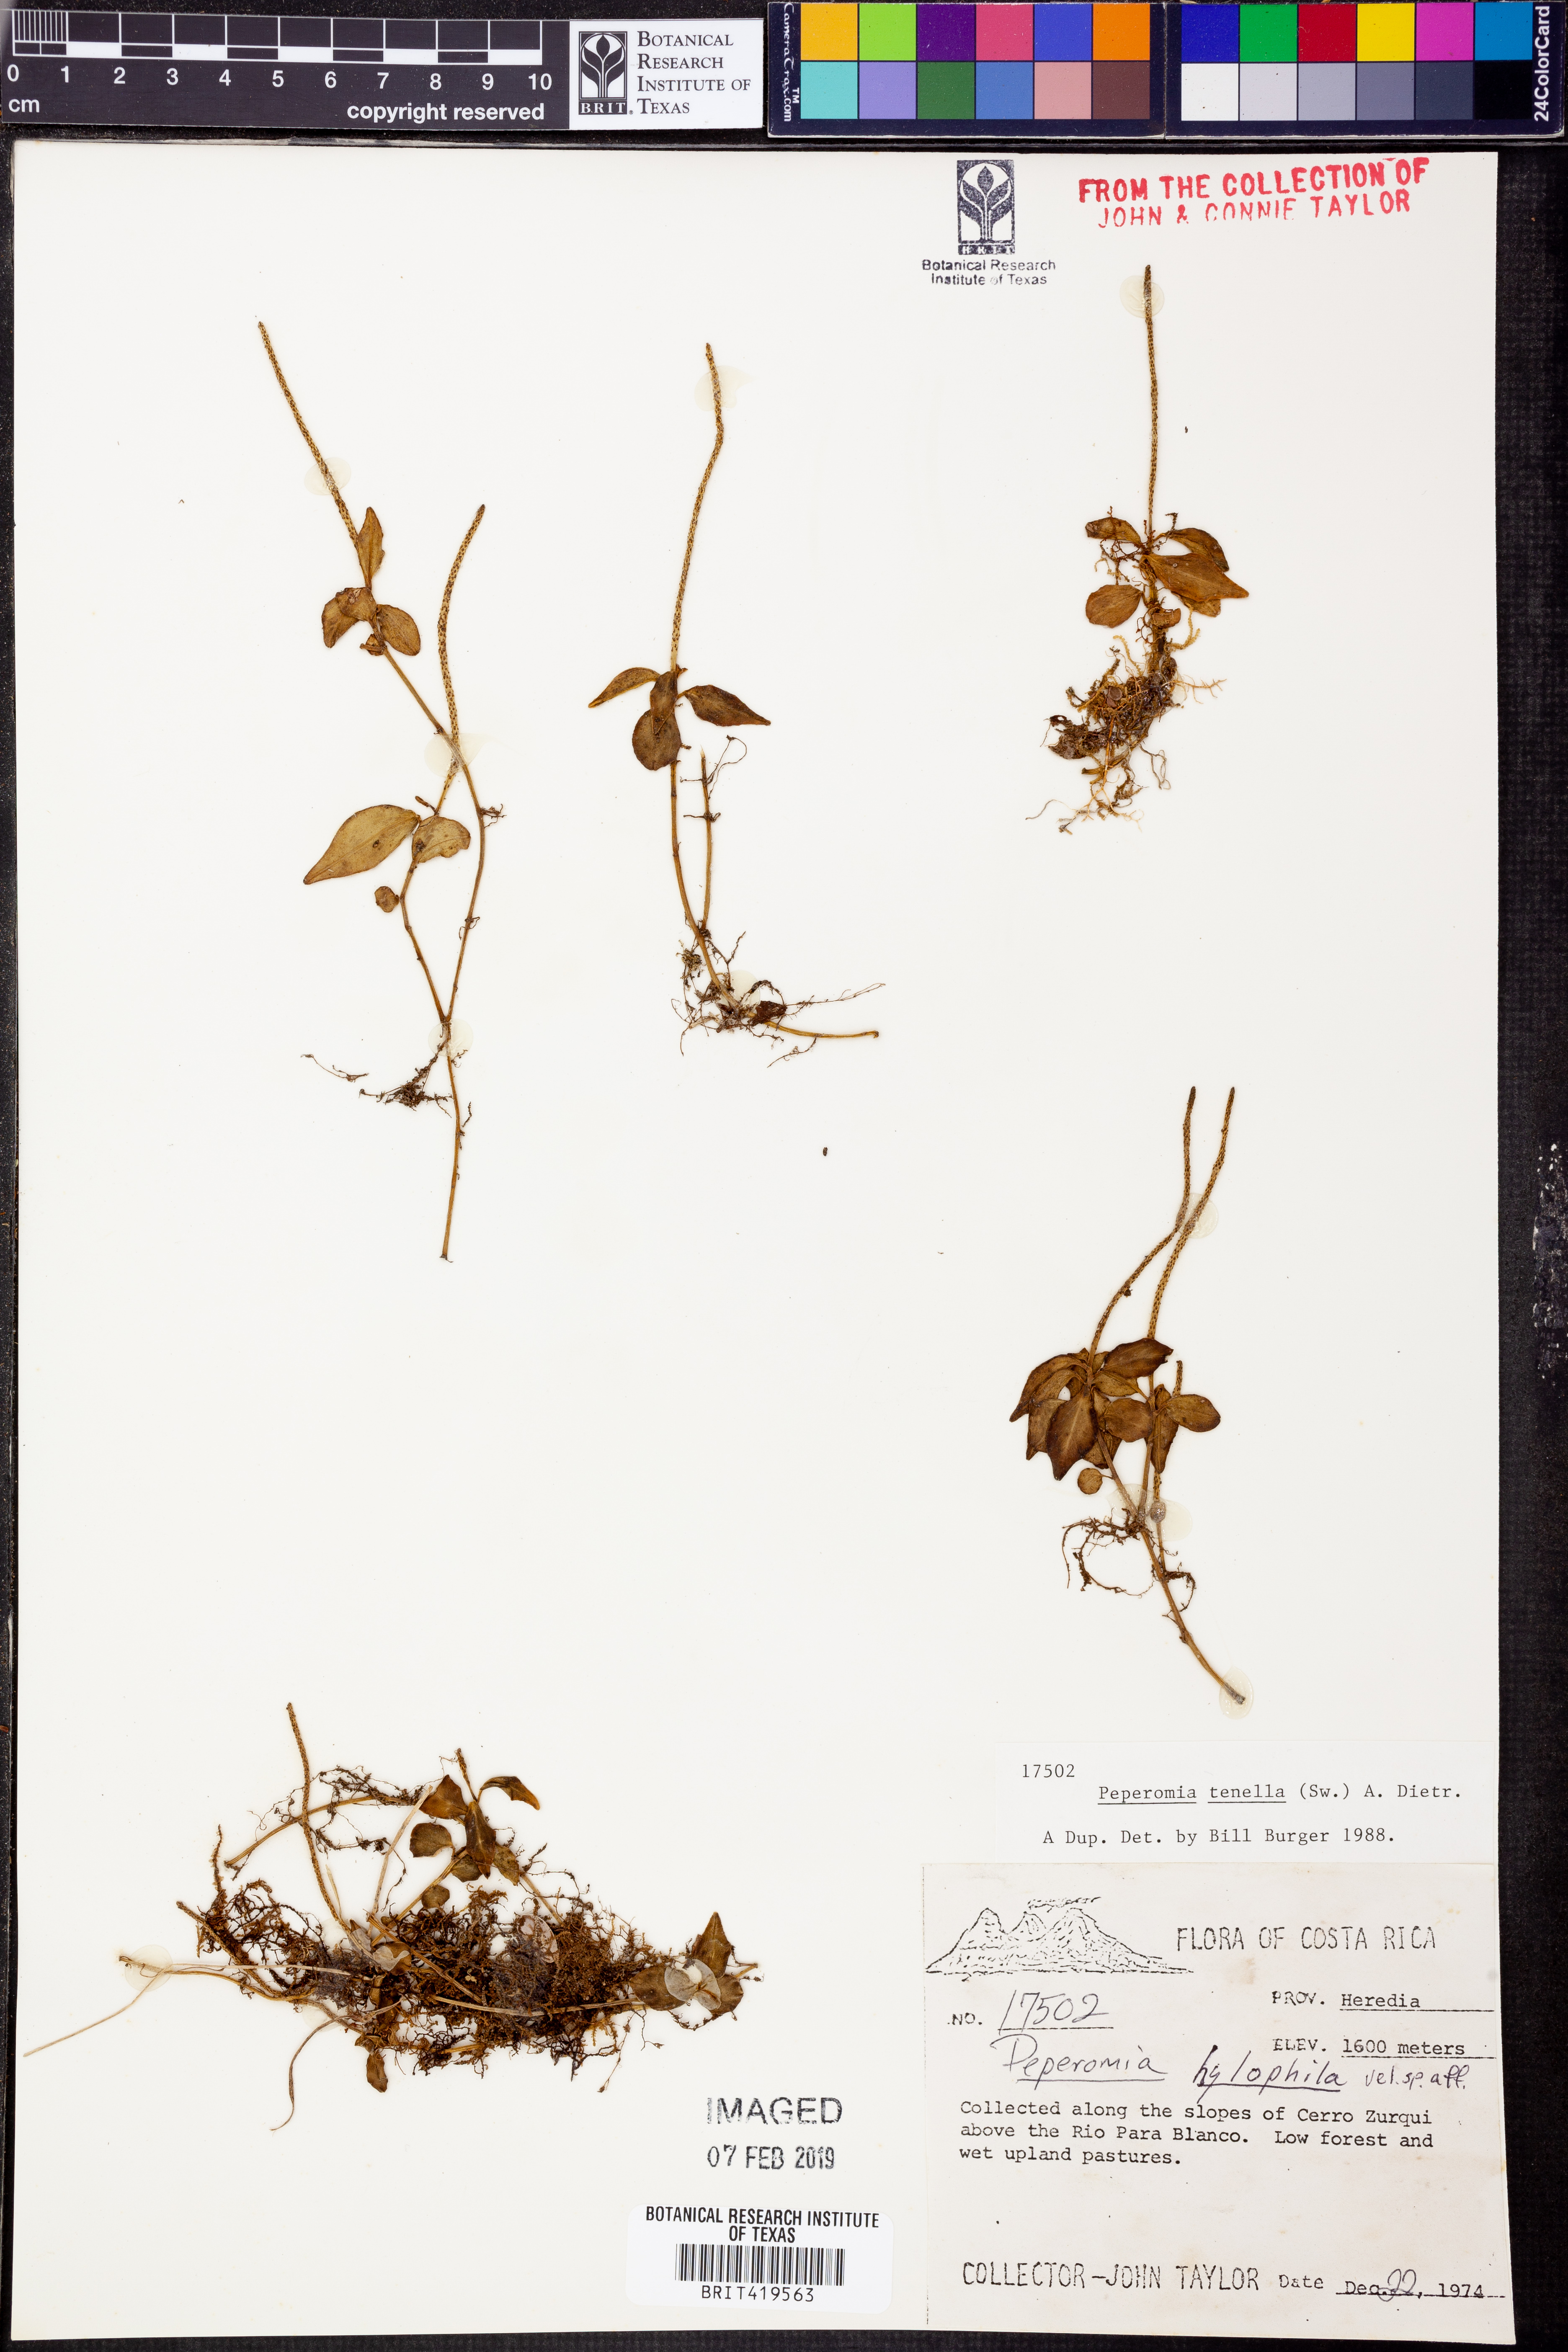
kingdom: Plantae
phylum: Tracheophyta
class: Magnoliopsida
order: Piperales
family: Piperaceae
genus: Peperomia
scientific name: Peperomia tenella
